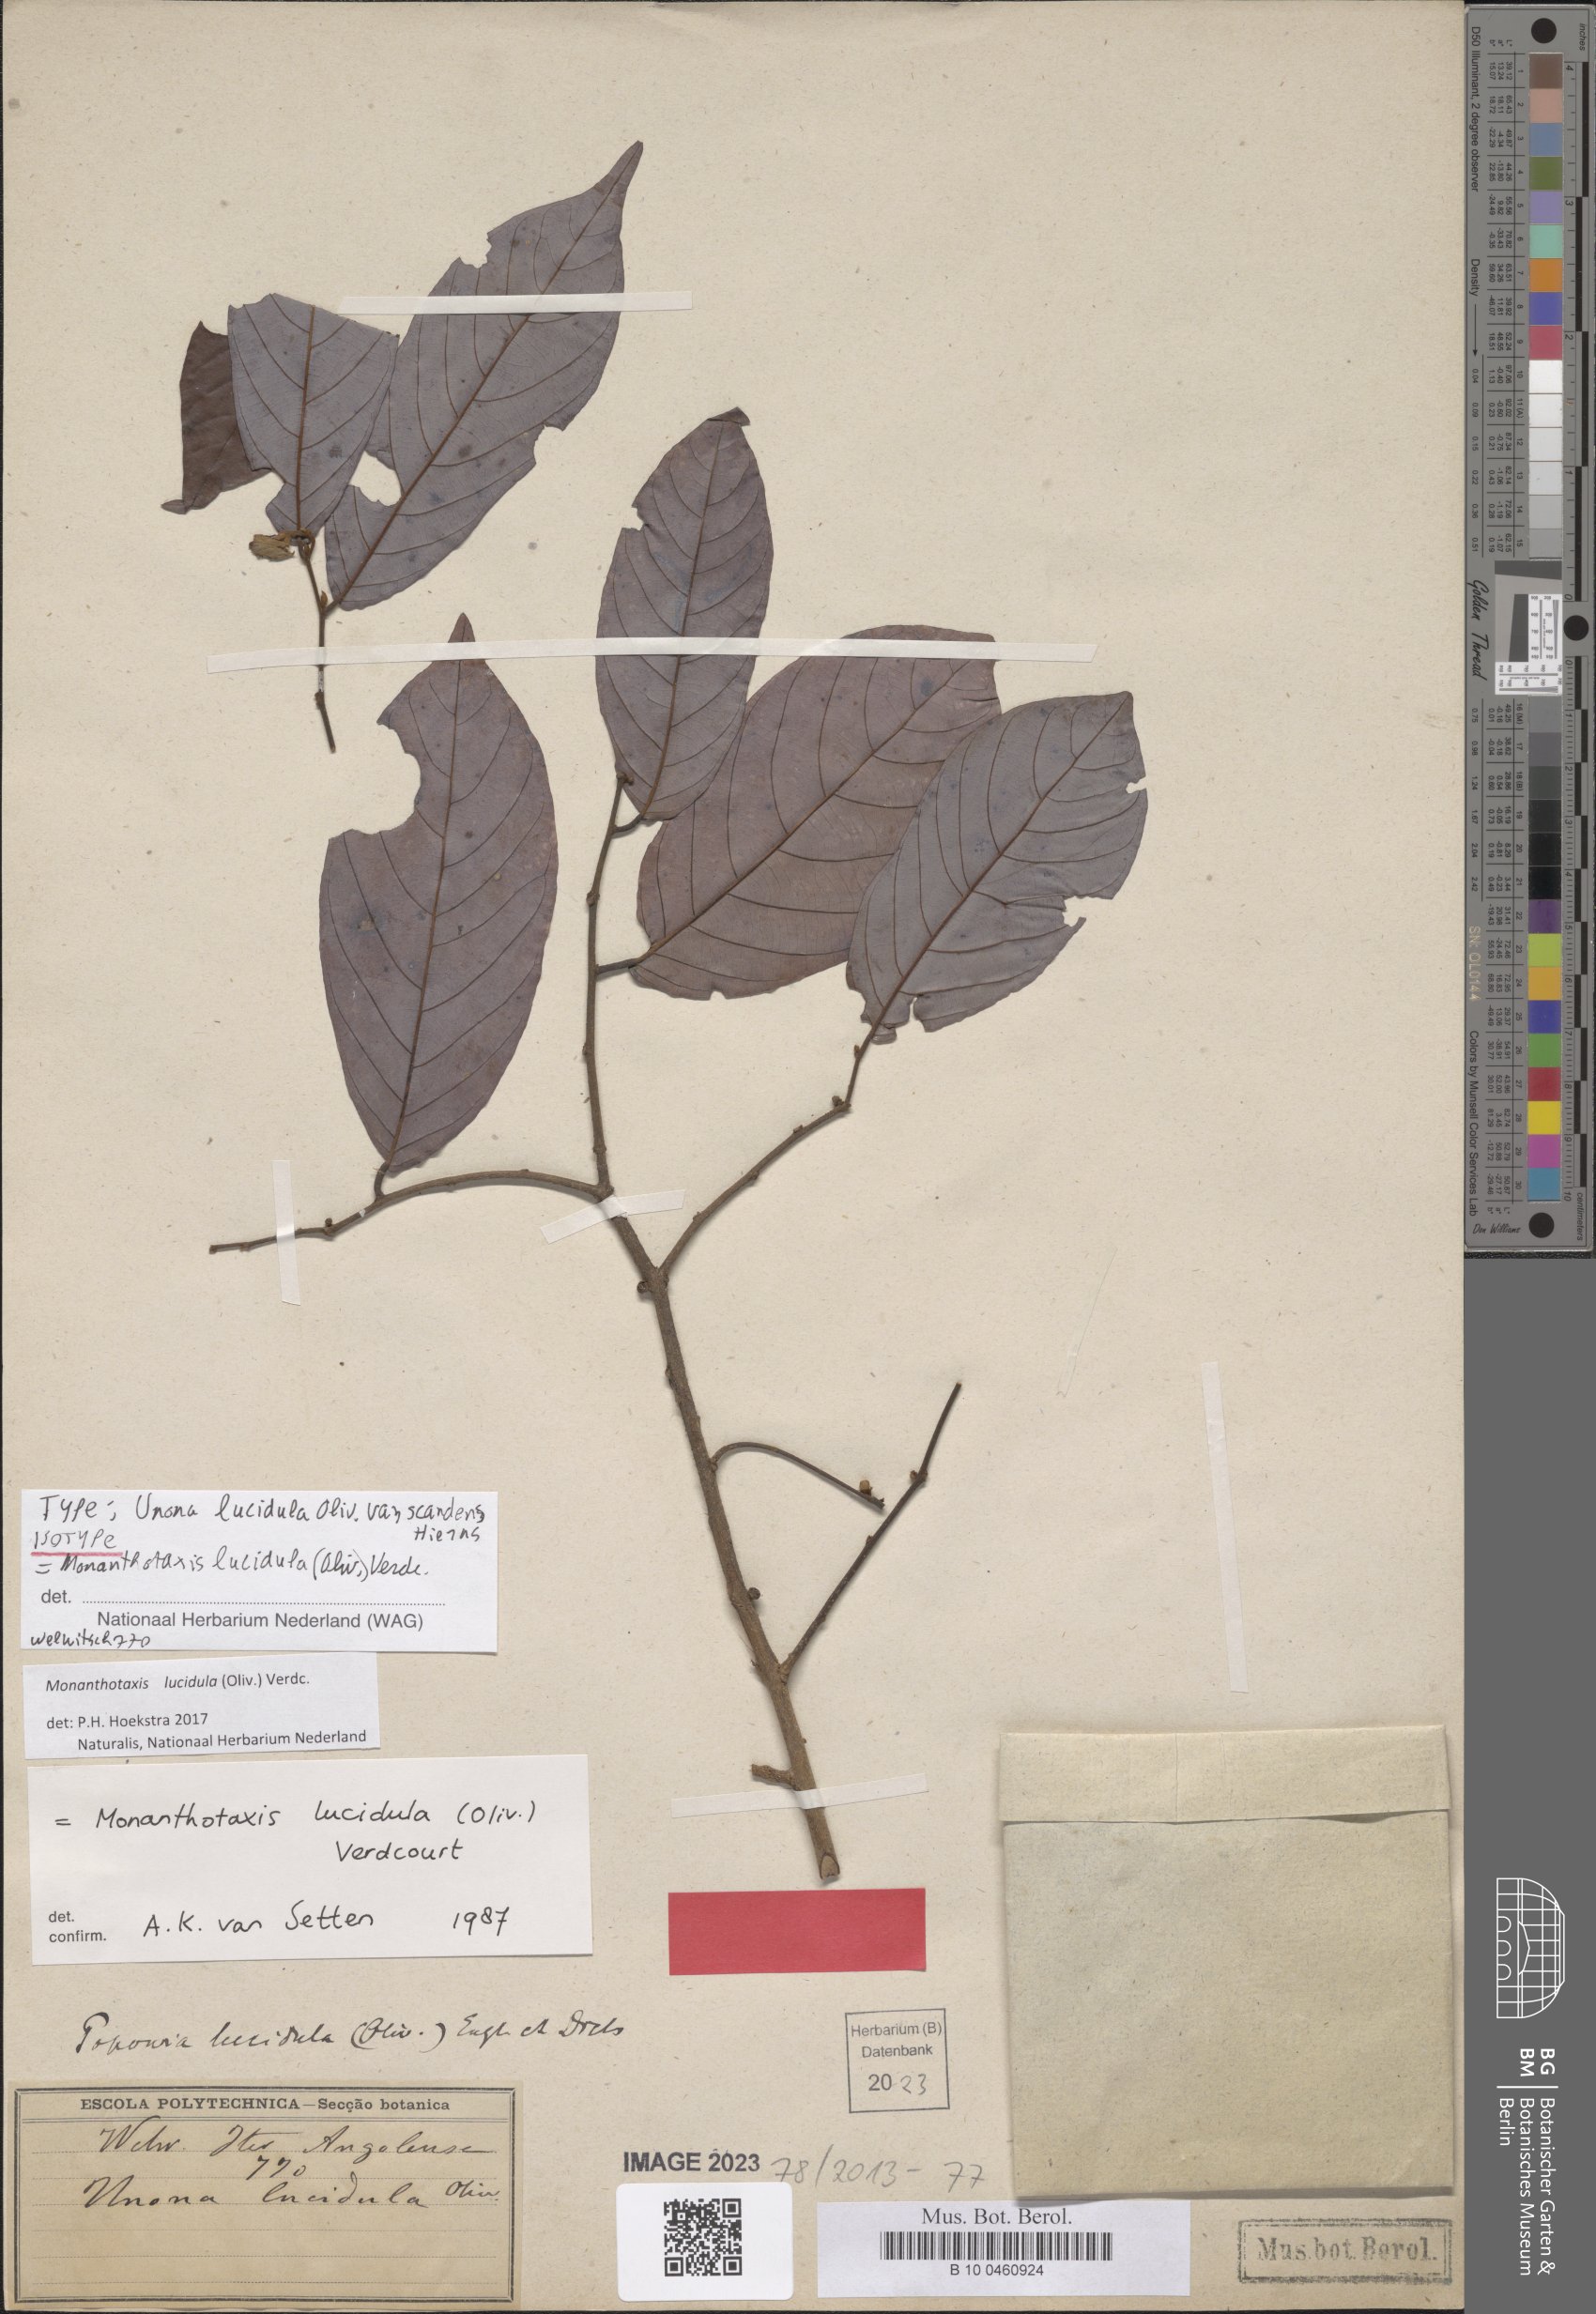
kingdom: Plantae
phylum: Tracheophyta
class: Magnoliopsida
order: Magnoliales
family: Annonaceae
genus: Monanthotaxis
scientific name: Monanthotaxis lucidula
